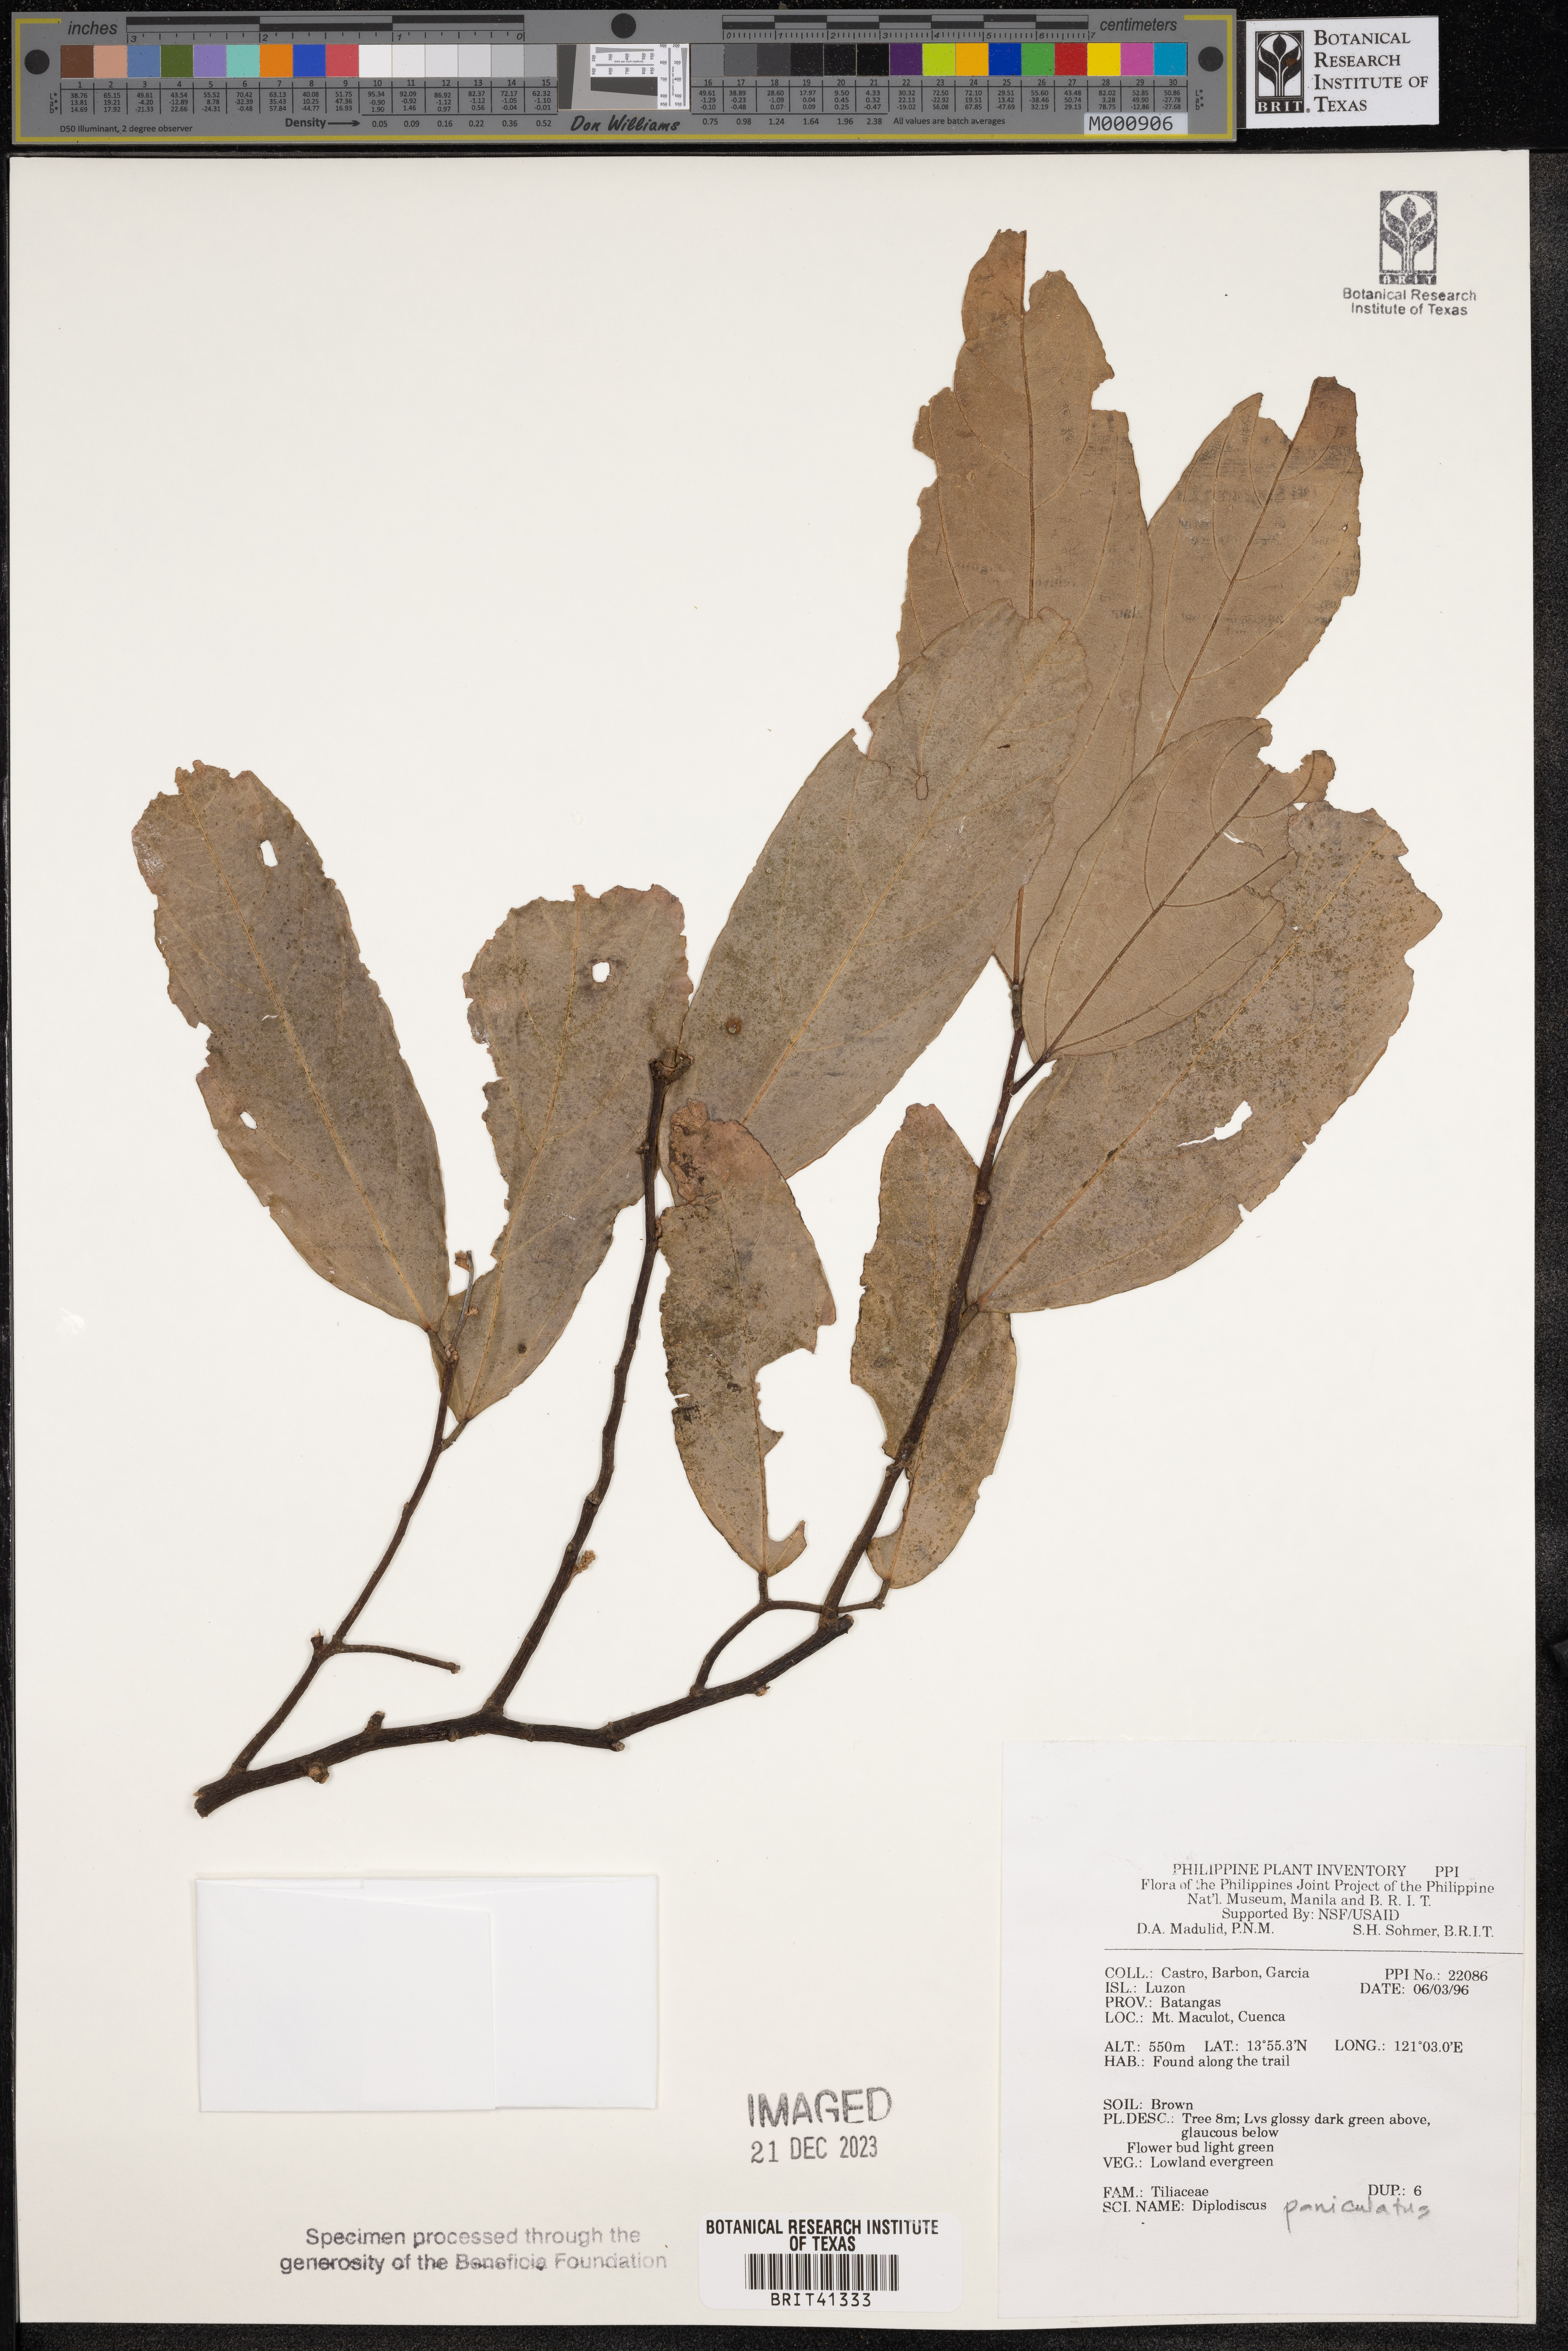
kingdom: Plantae
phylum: Tracheophyta
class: Magnoliopsida
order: Malvales
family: Malvaceae
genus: Diplodiscus
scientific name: Diplodiscus paniculatus
